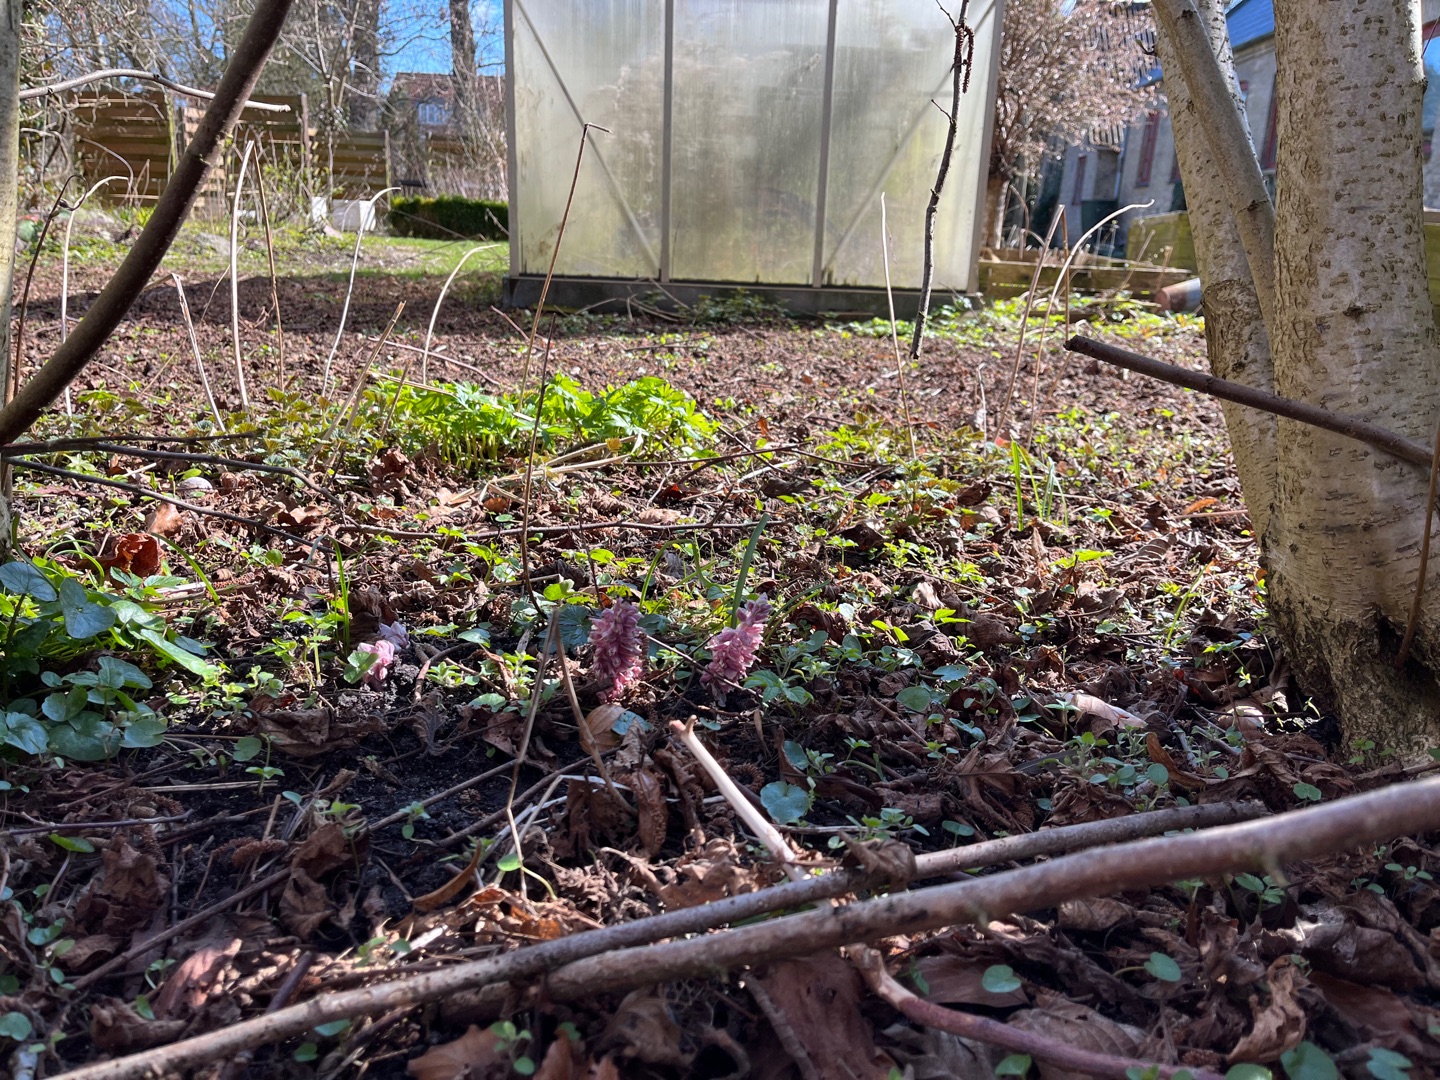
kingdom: Plantae
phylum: Tracheophyta
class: Magnoliopsida
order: Lamiales
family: Orobanchaceae
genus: Lathraea
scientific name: Lathraea squamaria
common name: Skælrod
